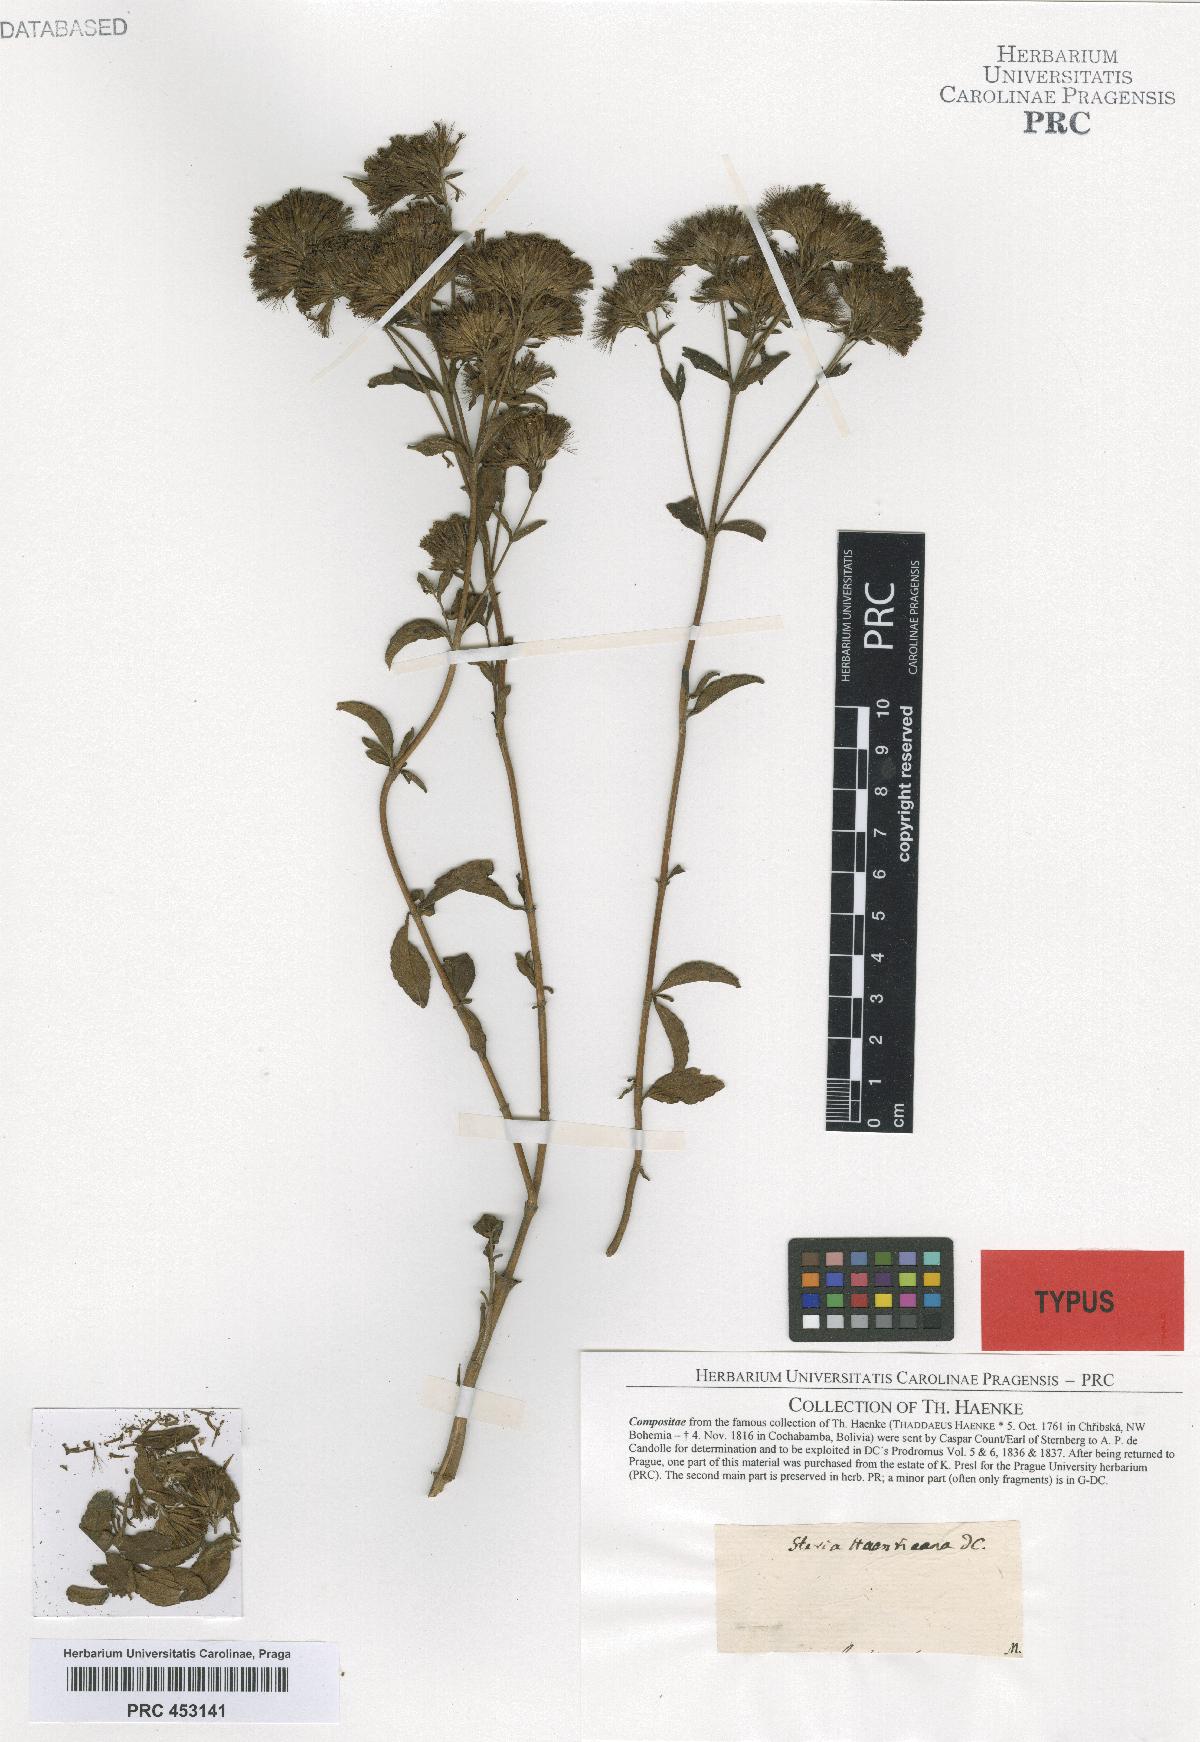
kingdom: Plantae
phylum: Tracheophyta
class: Magnoliopsida
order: Asterales
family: Asteraceae
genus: Stevia
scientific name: Stevia haenkeana
